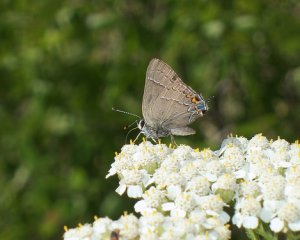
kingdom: Animalia
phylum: Arthropoda
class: Insecta
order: Lepidoptera
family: Lycaenidae
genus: Fixsenia
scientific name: Fixsenia favonius
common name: Oak Hairstreak
